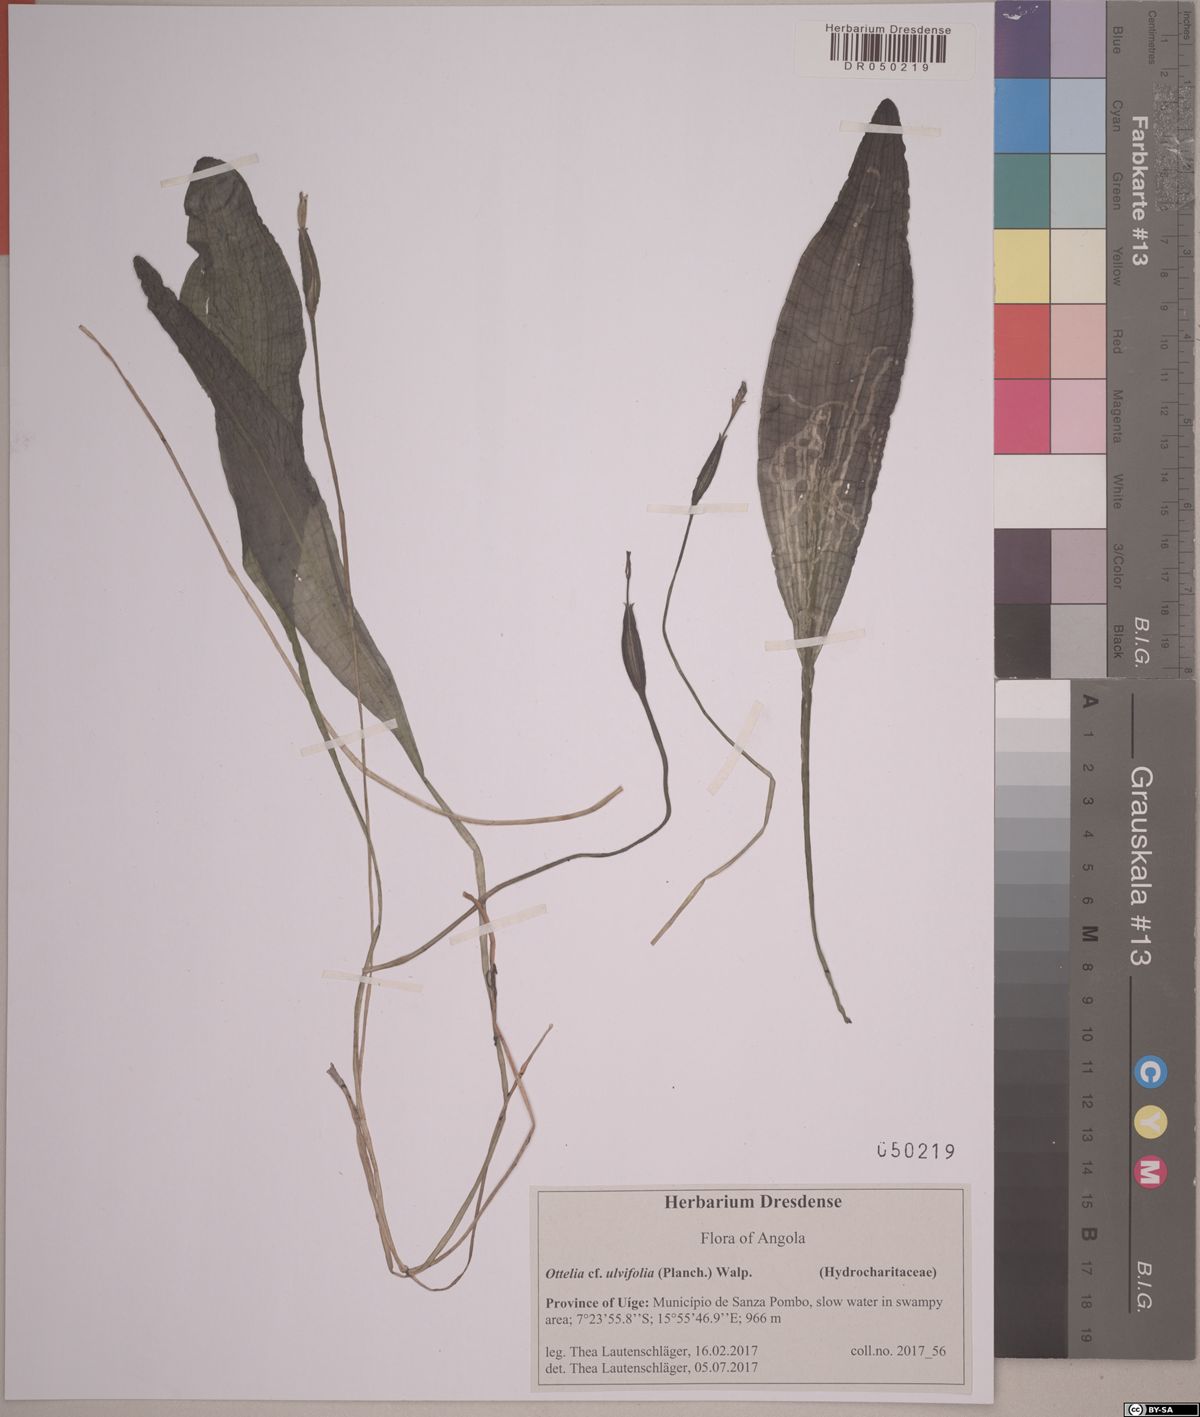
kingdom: Plantae
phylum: Tracheophyta
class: Liliopsida
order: Alismatales
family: Hydrocharitaceae
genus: Ottelia
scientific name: Ottelia ulvifolia
